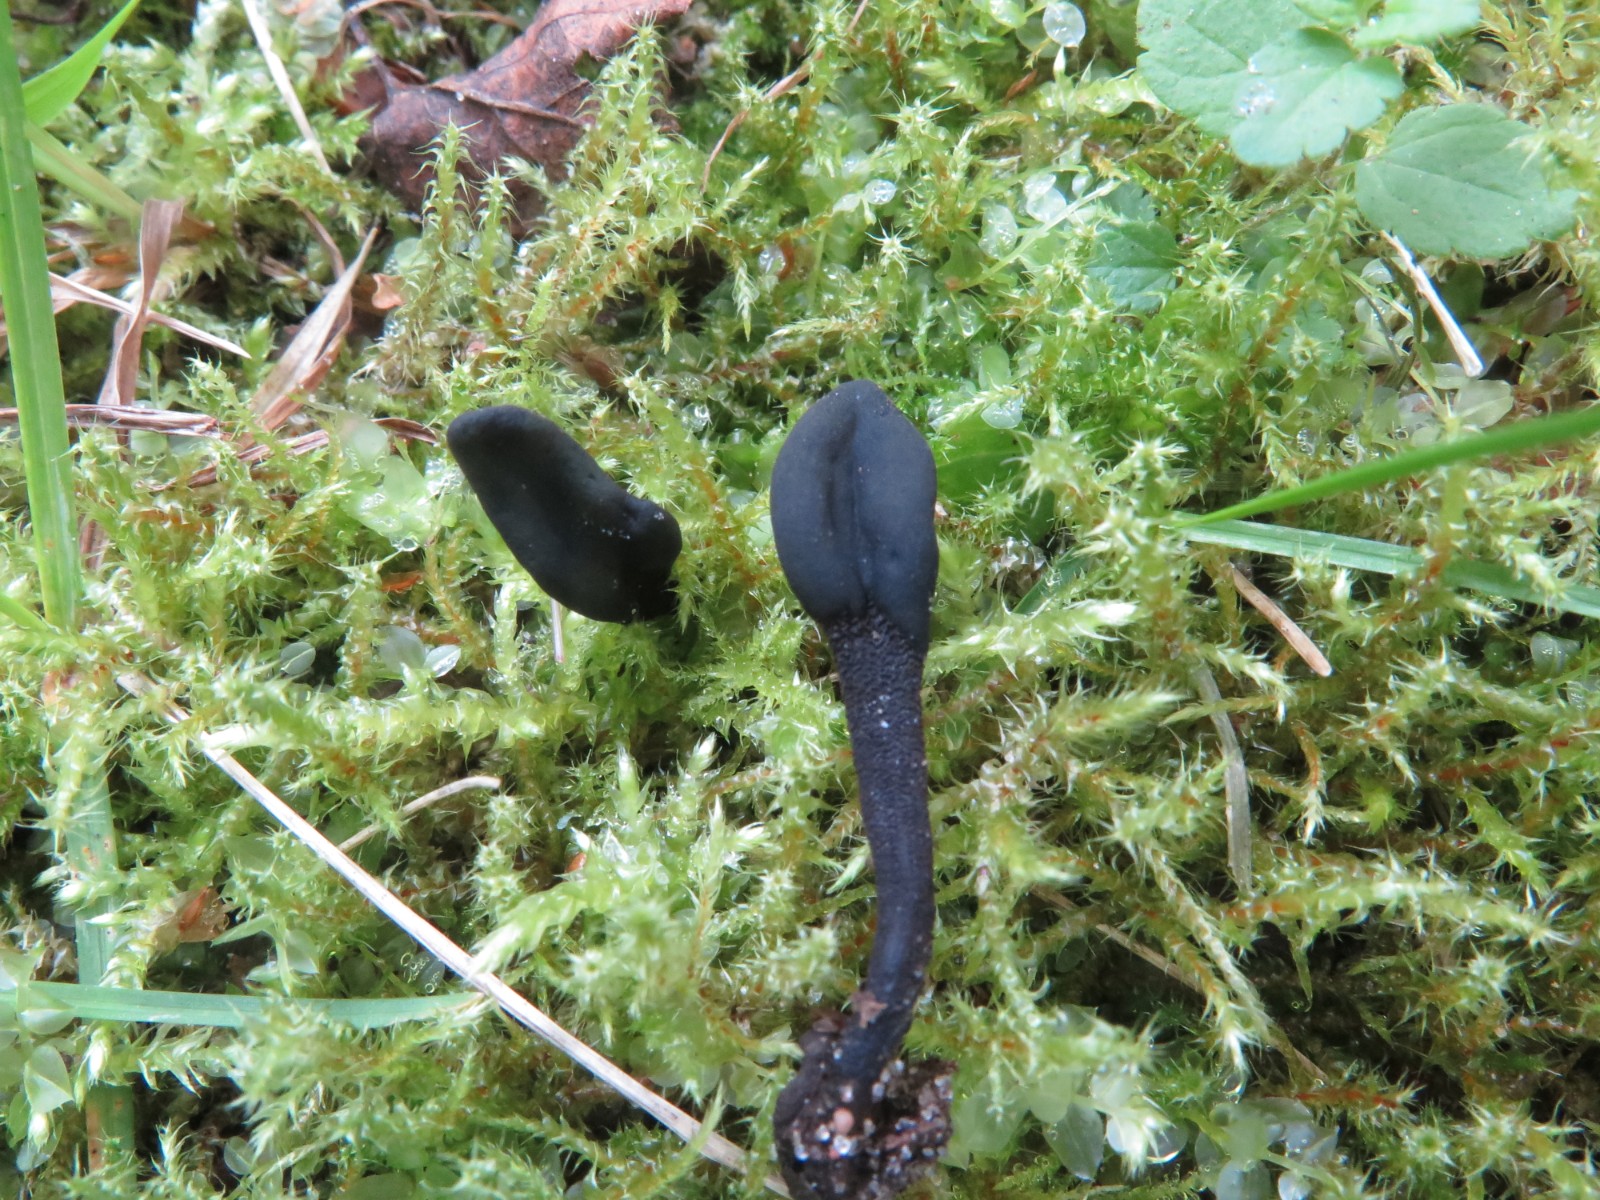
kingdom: Fungi
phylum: Ascomycota
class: Geoglossomycetes
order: Geoglossales
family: Geoglossaceae
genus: Geoglossum
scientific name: Geoglossum
